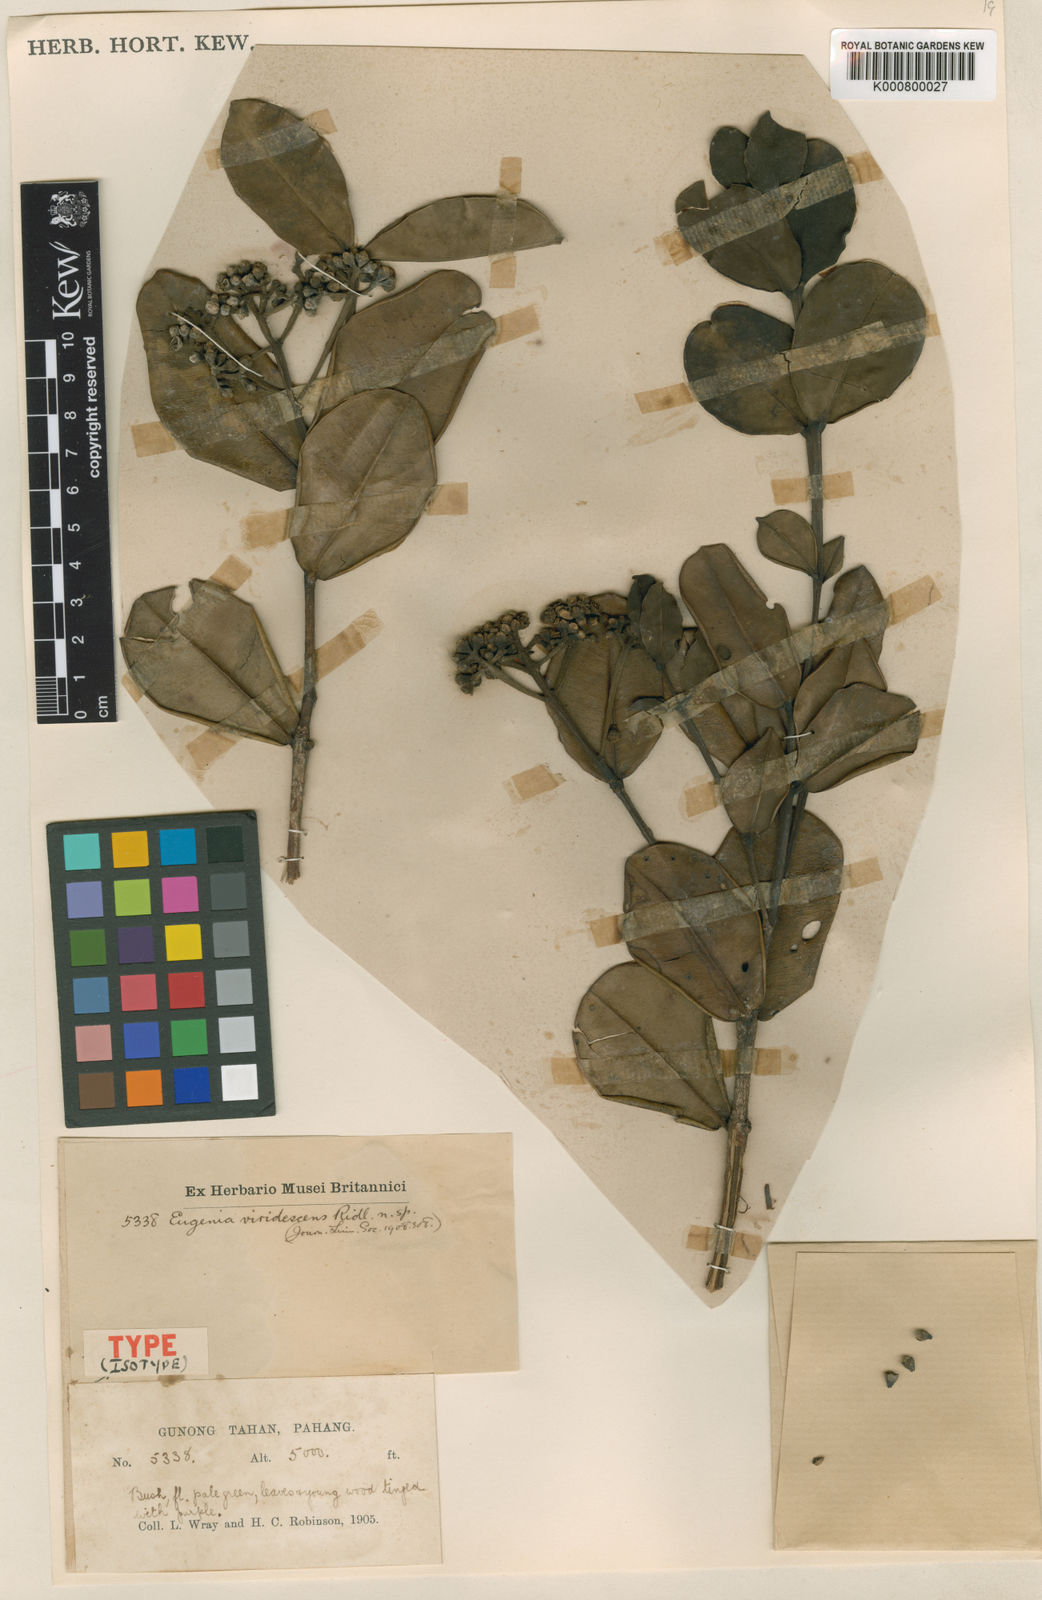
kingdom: Plantae
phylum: Tracheophyta
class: Magnoliopsida
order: Myrtales
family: Myrtaceae
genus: Syzygium
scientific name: Syzygium viridescens
